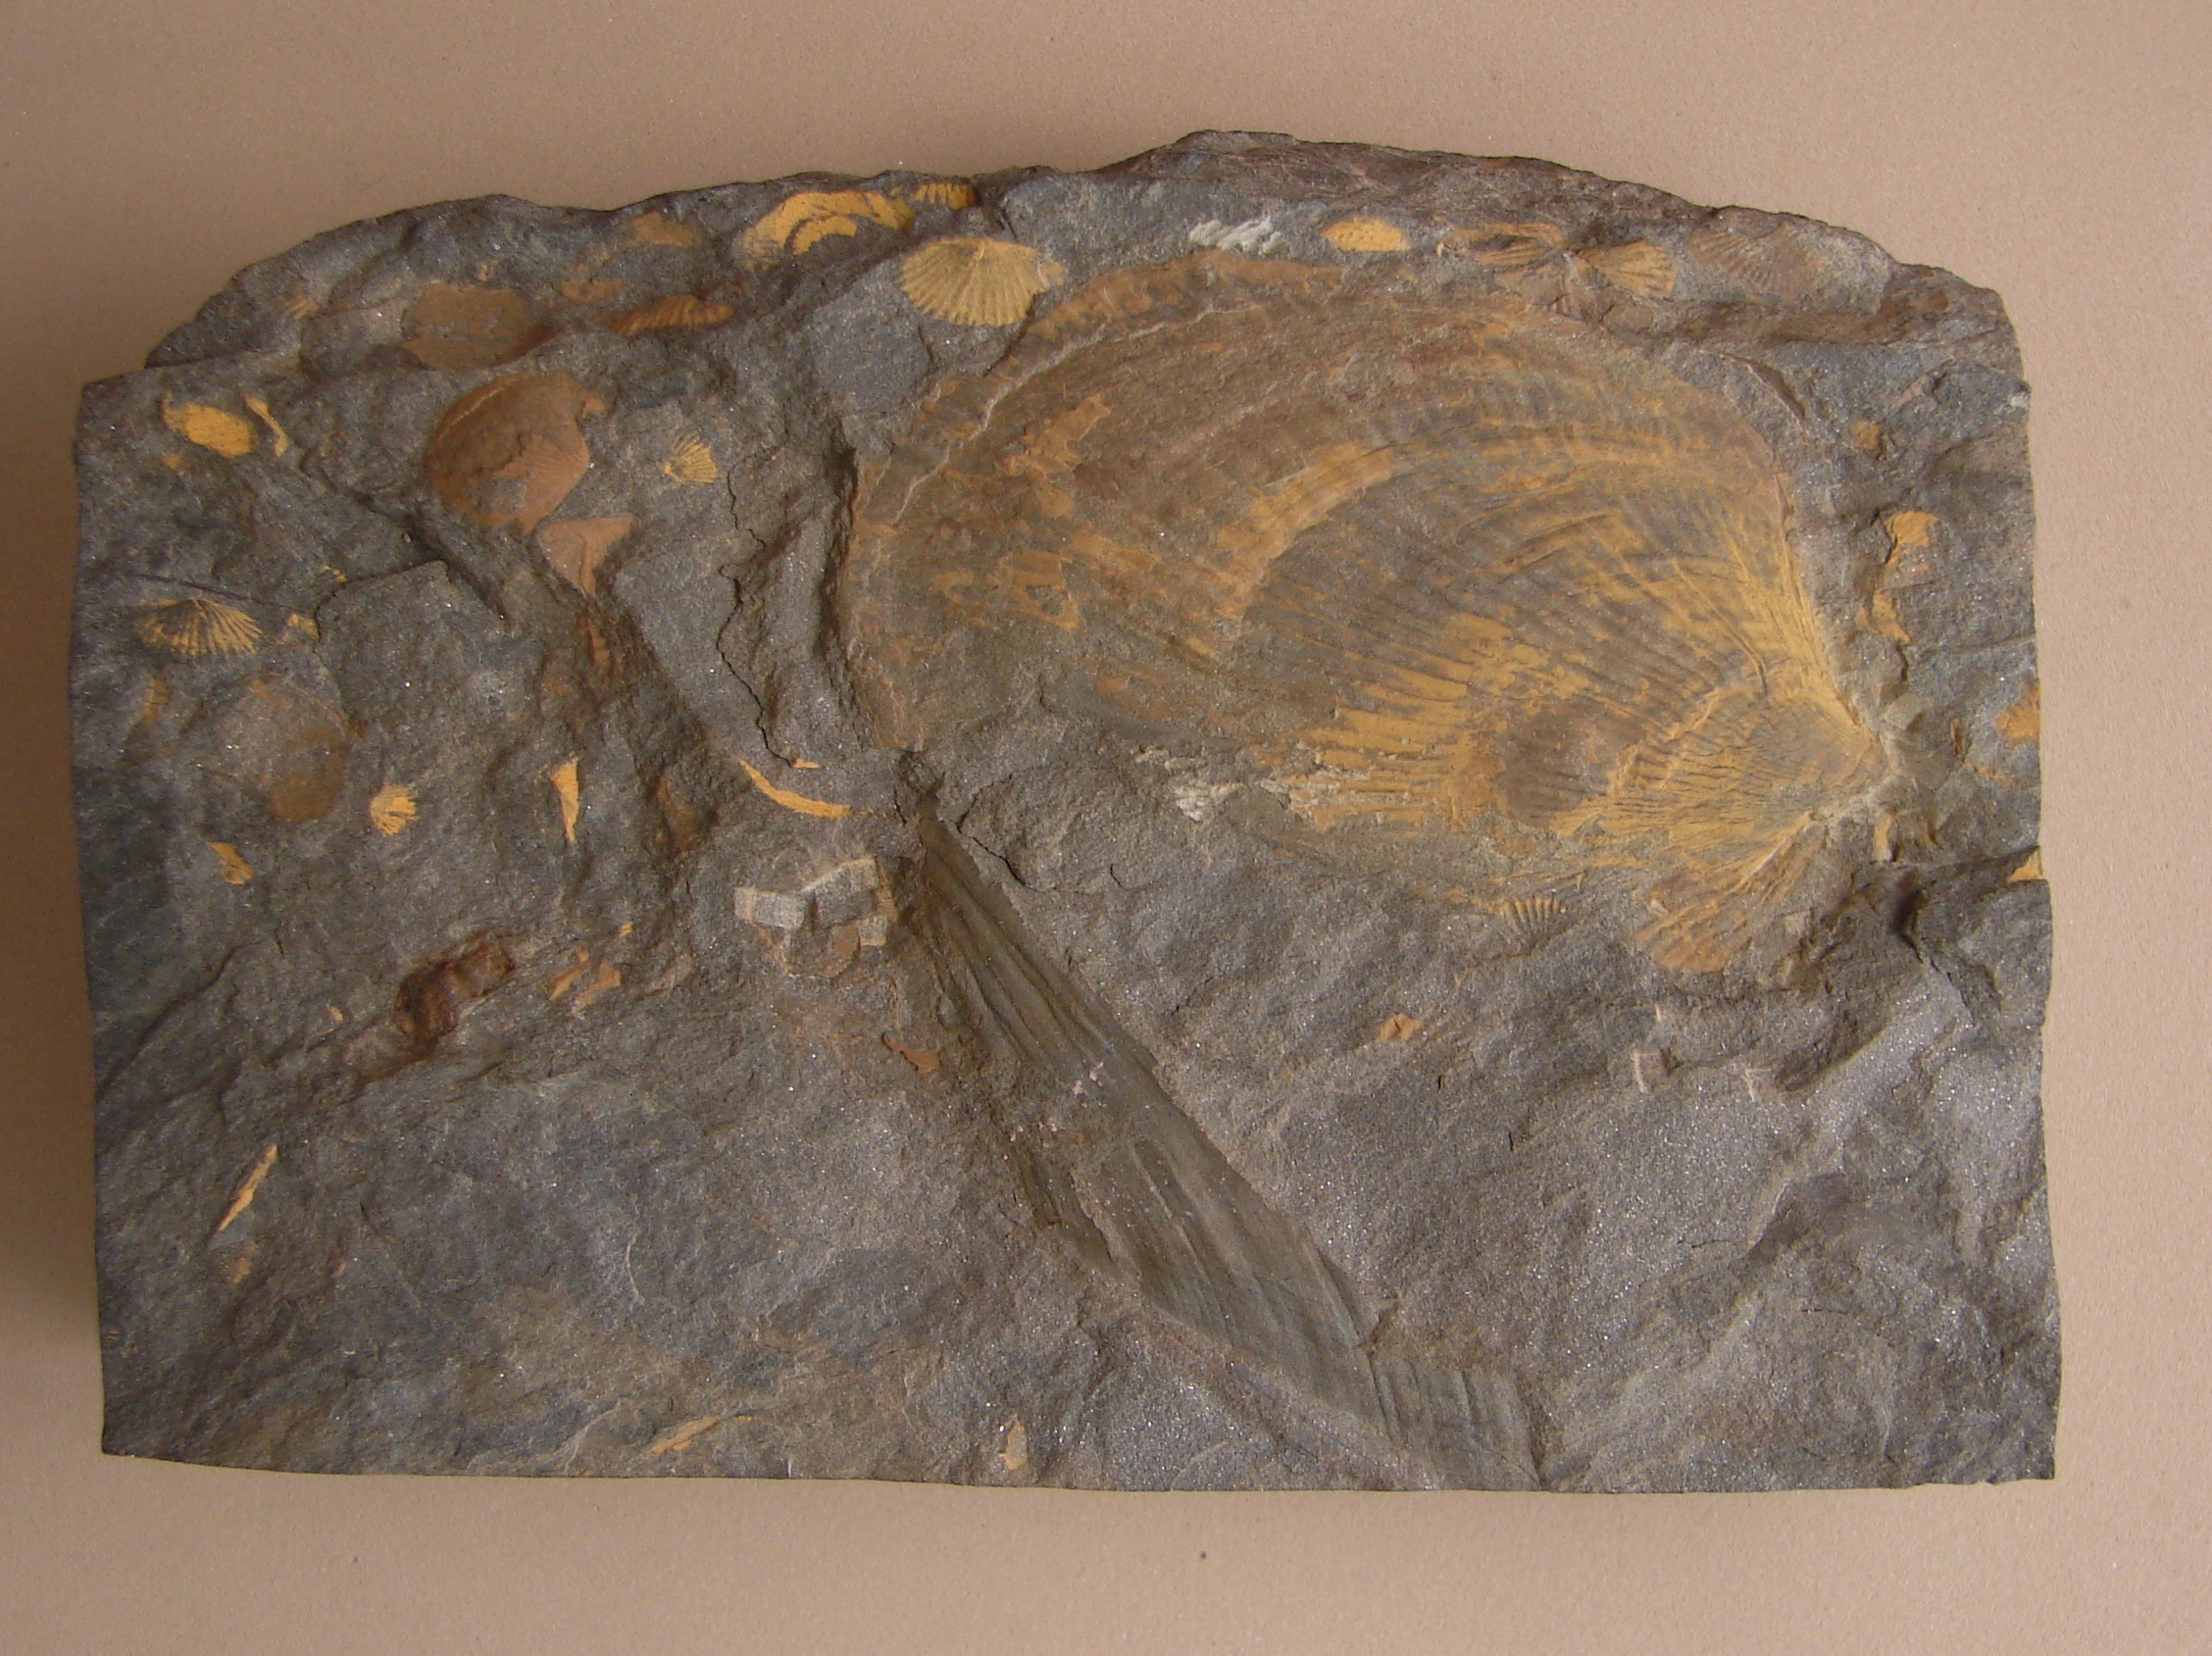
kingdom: Animalia
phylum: Mollusca
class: Bivalvia
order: Ostreida
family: Pterineidae
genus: Limoptera
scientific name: Limoptera
